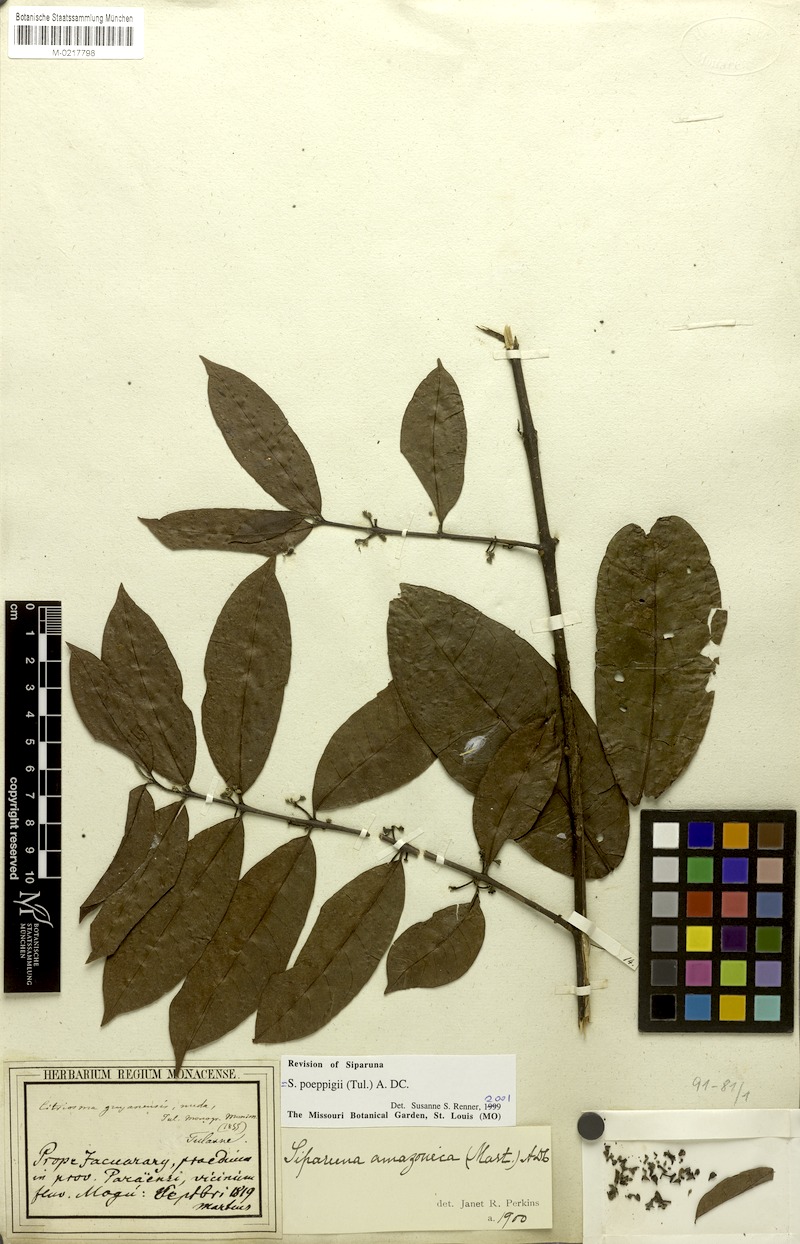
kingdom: Plantae
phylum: Tracheophyta
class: Magnoliopsida
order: Laurales
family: Siparunaceae
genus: Siparuna
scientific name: Siparuna poeppigii
